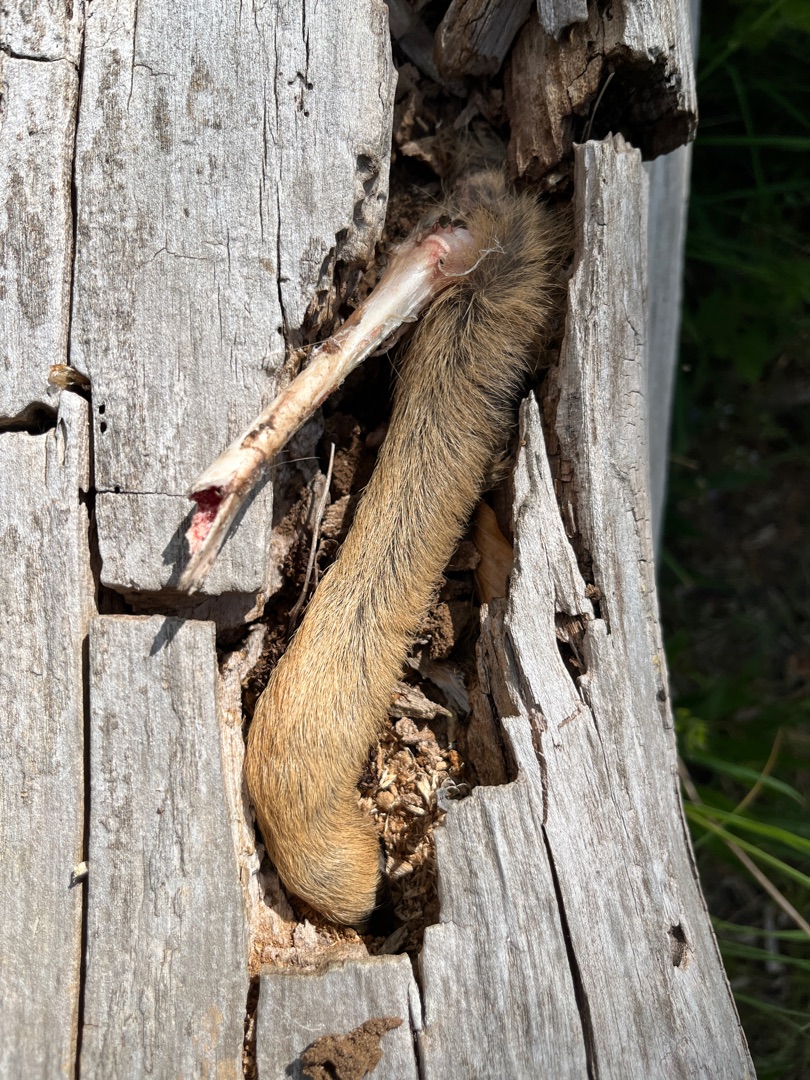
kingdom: Animalia
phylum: Chordata
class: Mammalia
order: Artiodactyla
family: Cervidae
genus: Capreolus
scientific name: Capreolus capreolus
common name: Rådyr
